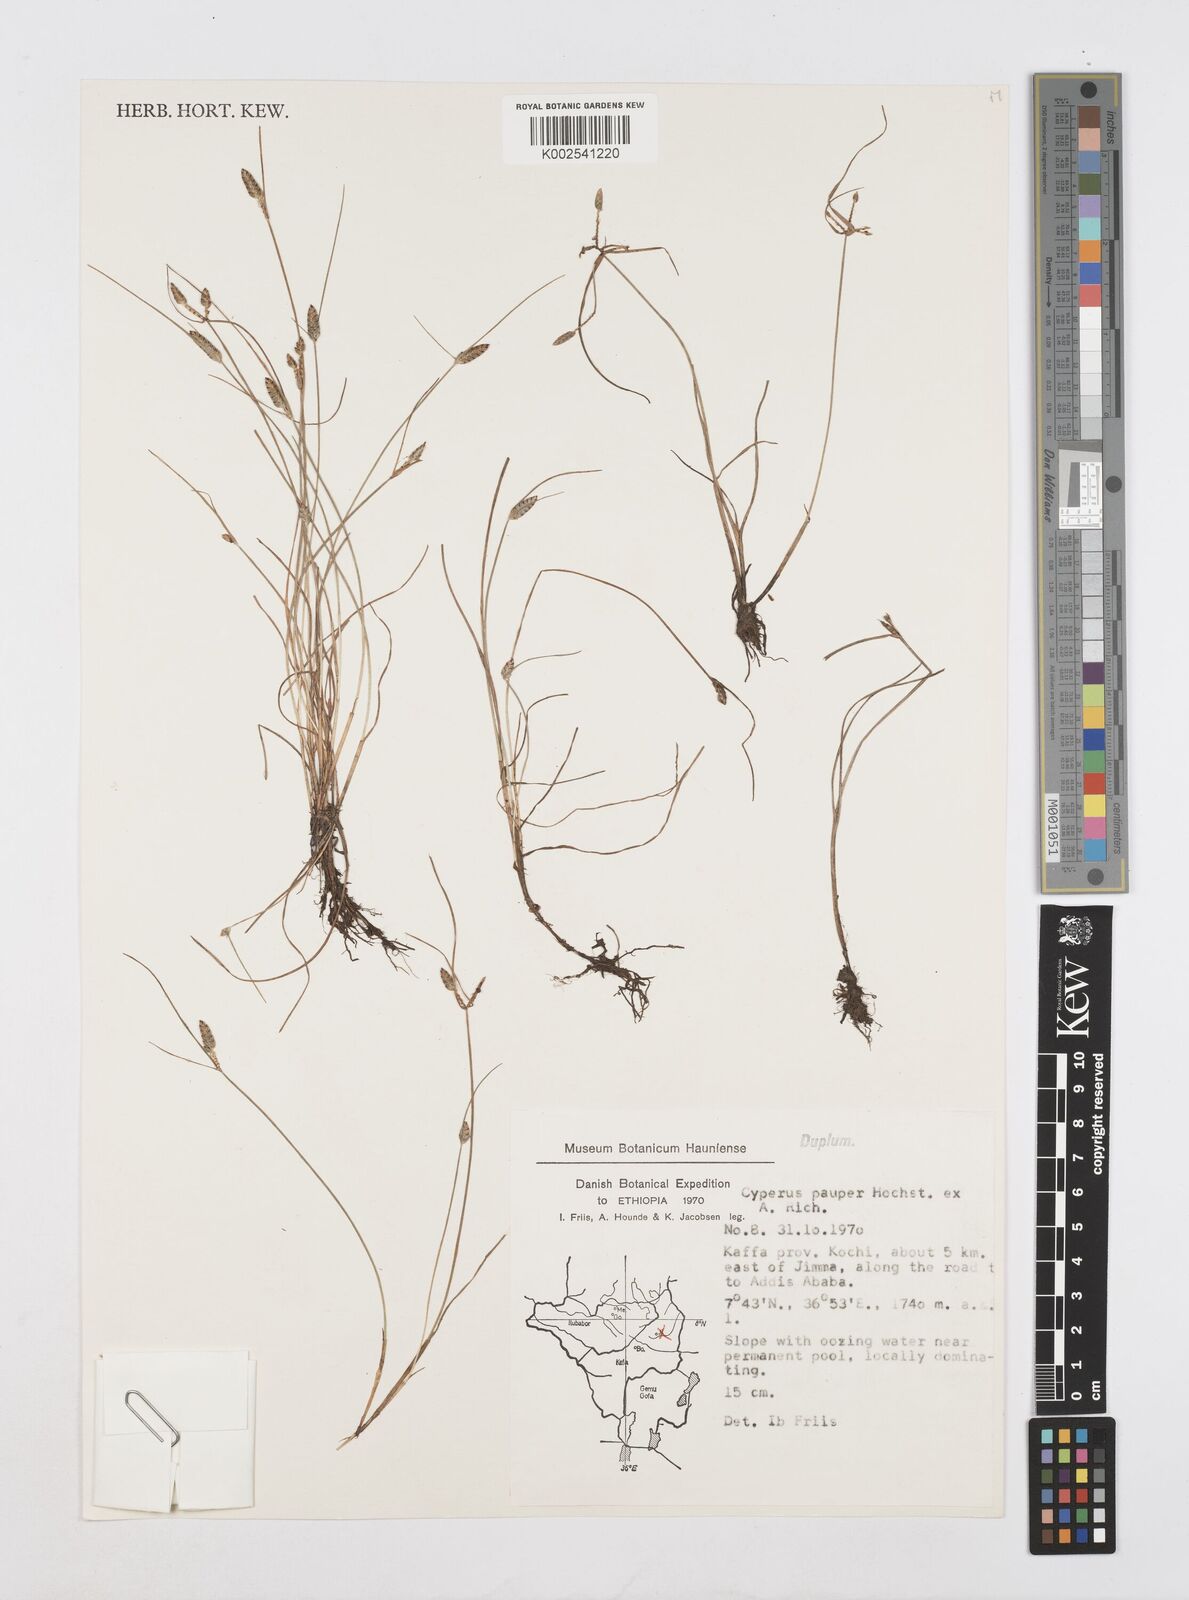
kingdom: Plantae
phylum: Tracheophyta
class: Liliopsida
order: Poales
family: Cyperaceae
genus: Cyperus
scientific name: Cyperus pauper
